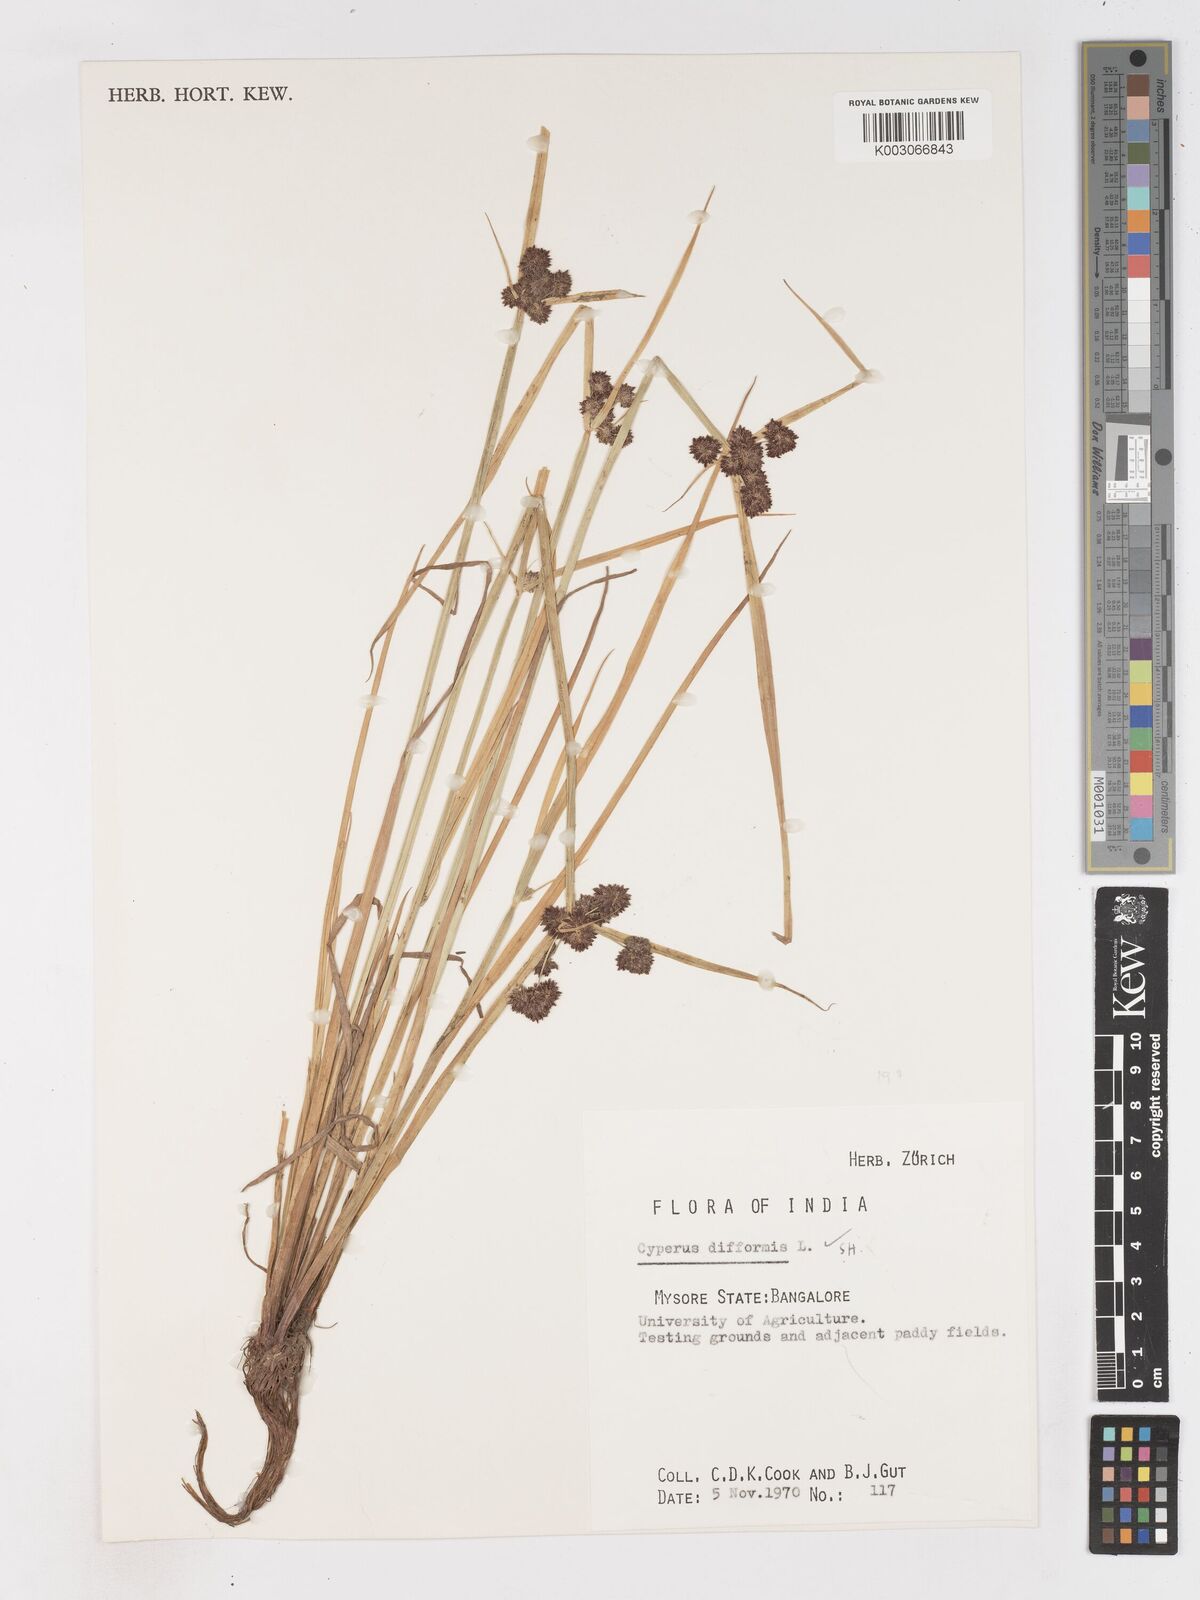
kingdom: Plantae
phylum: Tracheophyta
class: Liliopsida
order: Poales
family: Cyperaceae
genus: Cyperus
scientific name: Cyperus difformis
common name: Variable flatsedge
